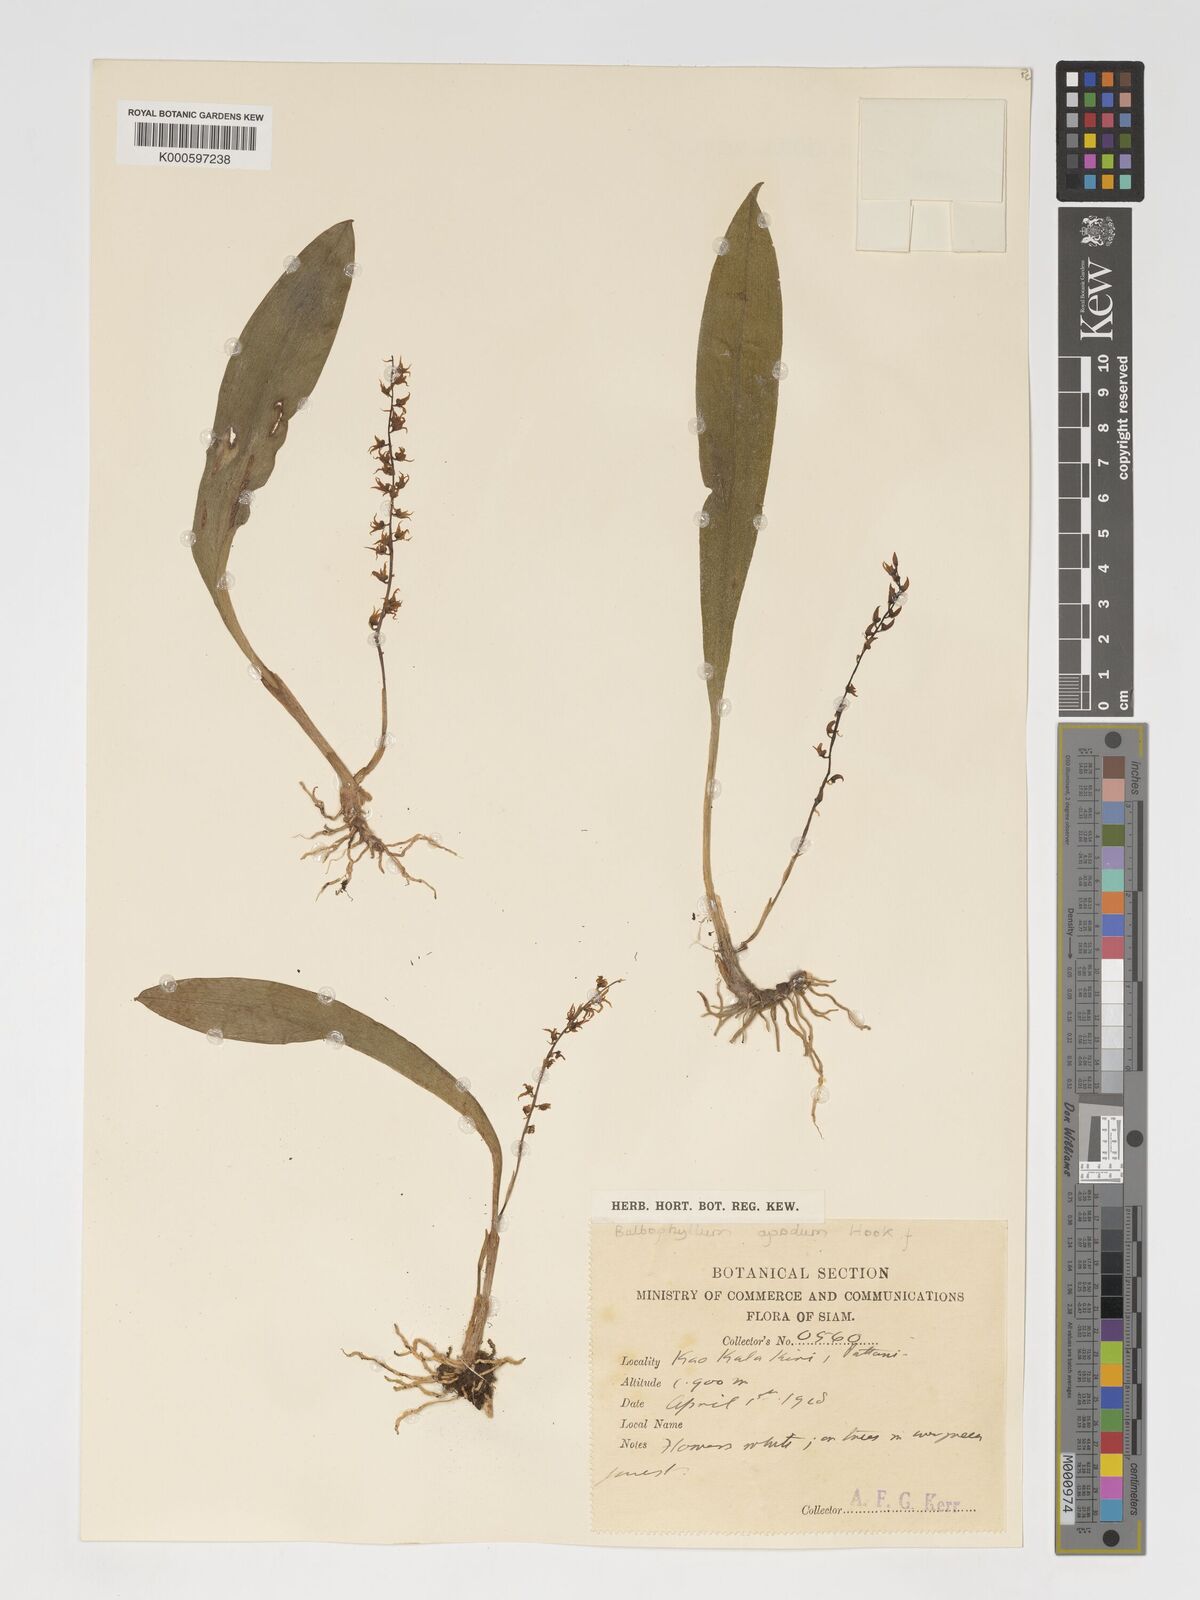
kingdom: Plantae
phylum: Tracheophyta
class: Liliopsida
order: Asparagales
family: Orchidaceae
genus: Bulbophyllum
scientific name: Bulbophyllum apodum
